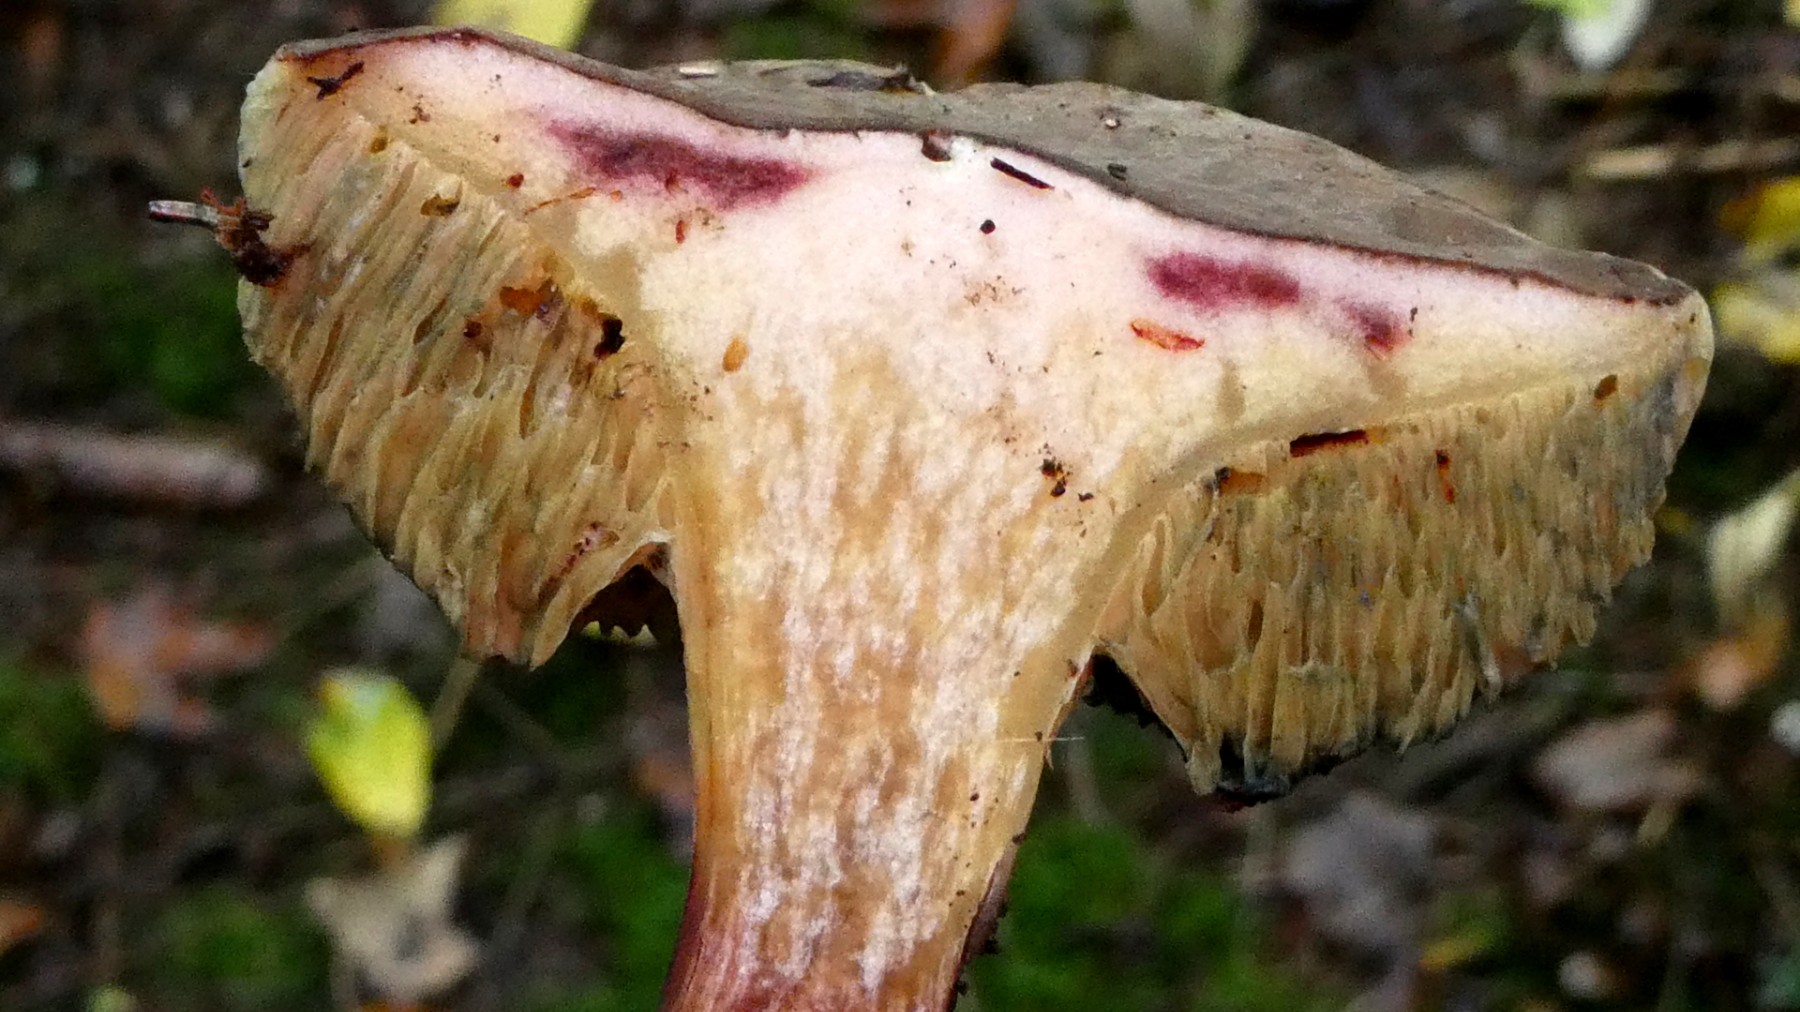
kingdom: Fungi
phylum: Basidiomycota
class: Agaricomycetes
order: Boletales
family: Boletaceae
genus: Xerocomellus
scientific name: Xerocomellus
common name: dværgrørhat
